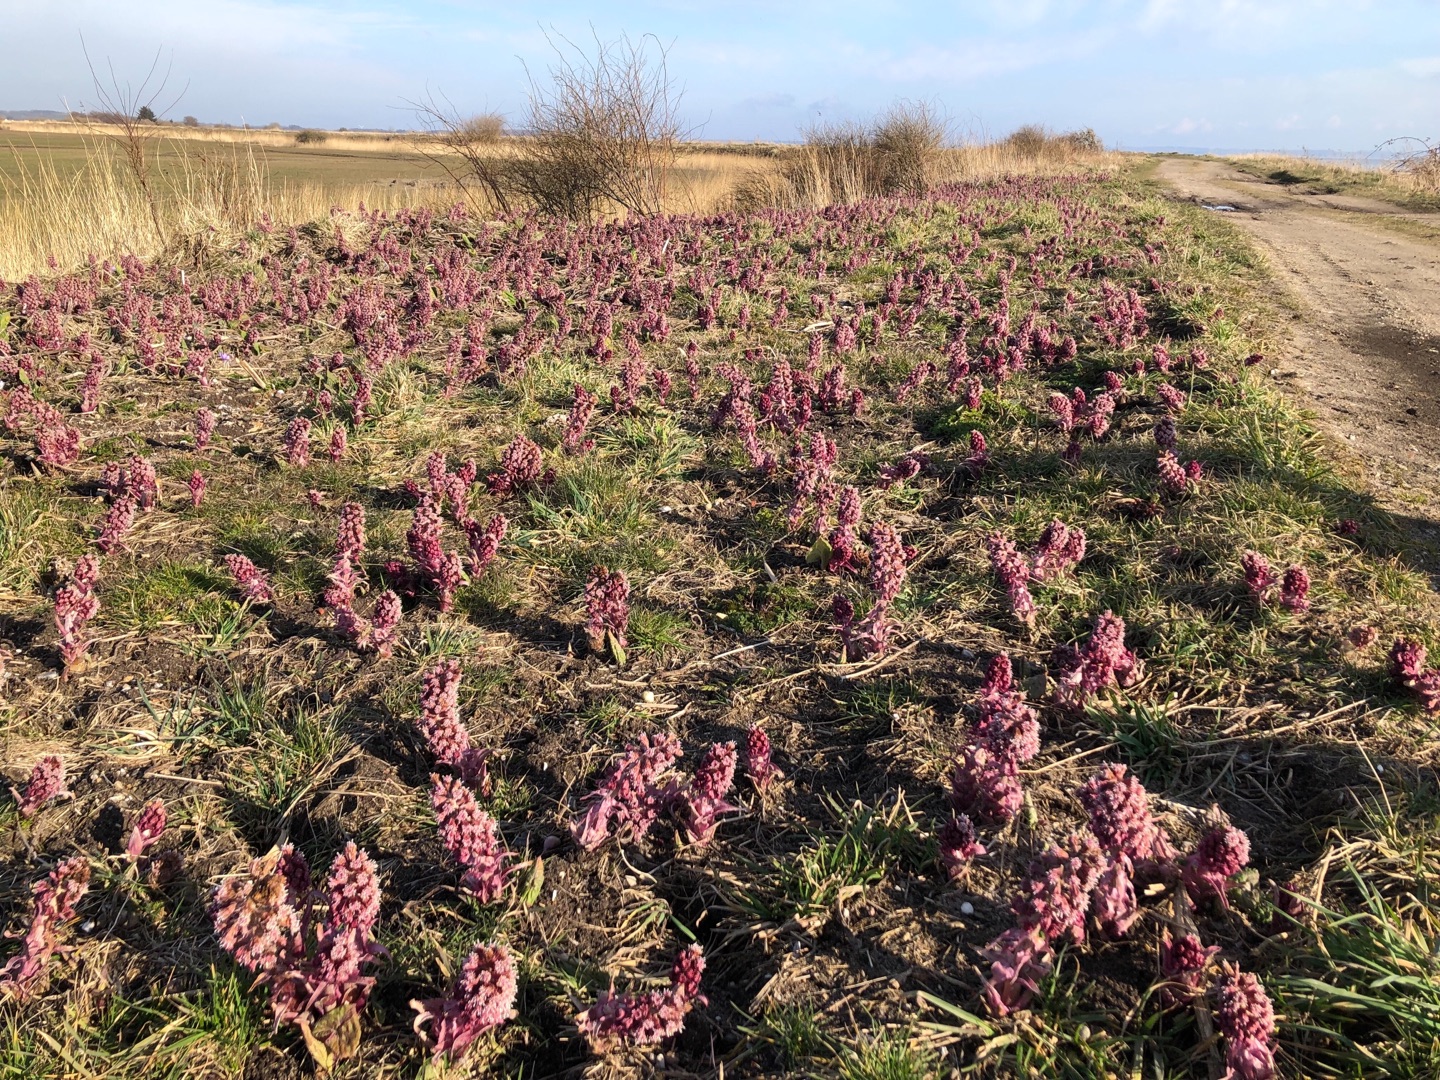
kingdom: Plantae
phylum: Tracheophyta
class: Magnoliopsida
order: Asterales
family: Asteraceae
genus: Petasites
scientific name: Petasites hybridus
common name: Rød hestehov
